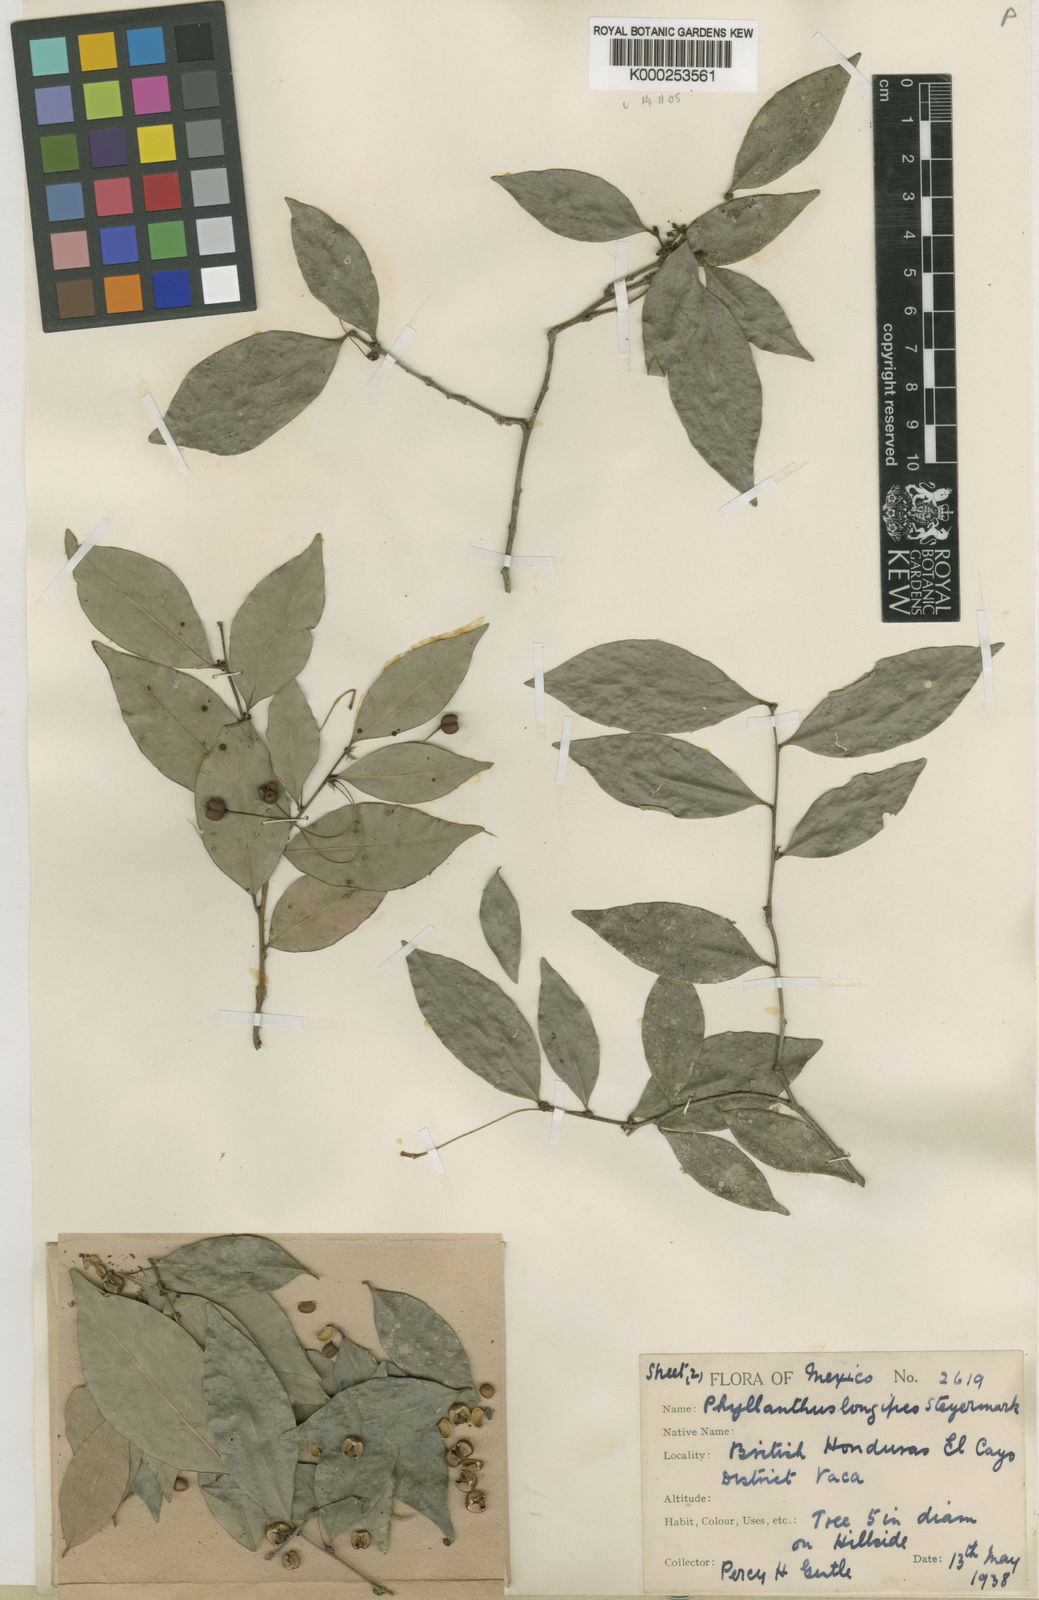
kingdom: Plantae
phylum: Tracheophyta
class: Magnoliopsida
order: Malpighiales
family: Euphorbiaceae
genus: Gymnanthes
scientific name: Gymnanthes belizensis
